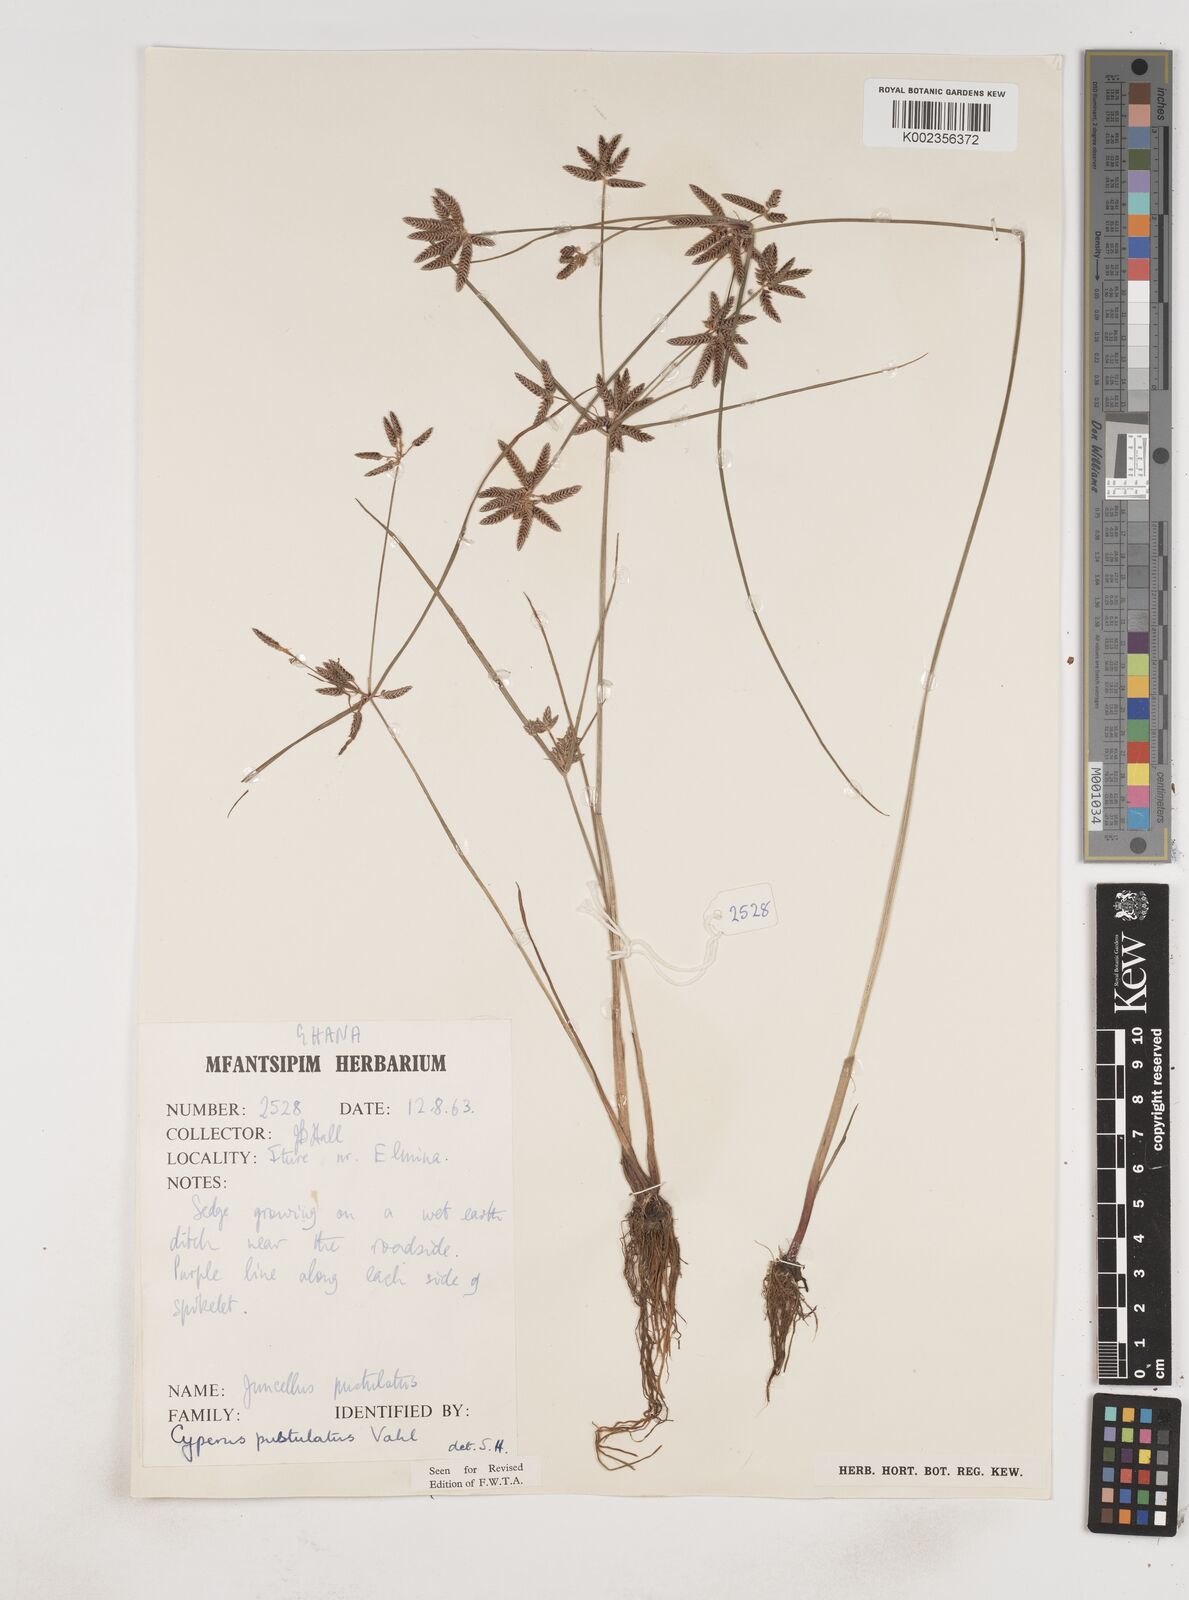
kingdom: Plantae
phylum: Tracheophyta
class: Liliopsida
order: Poales
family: Cyperaceae
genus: Cyperus
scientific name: Cyperus pustulatus
